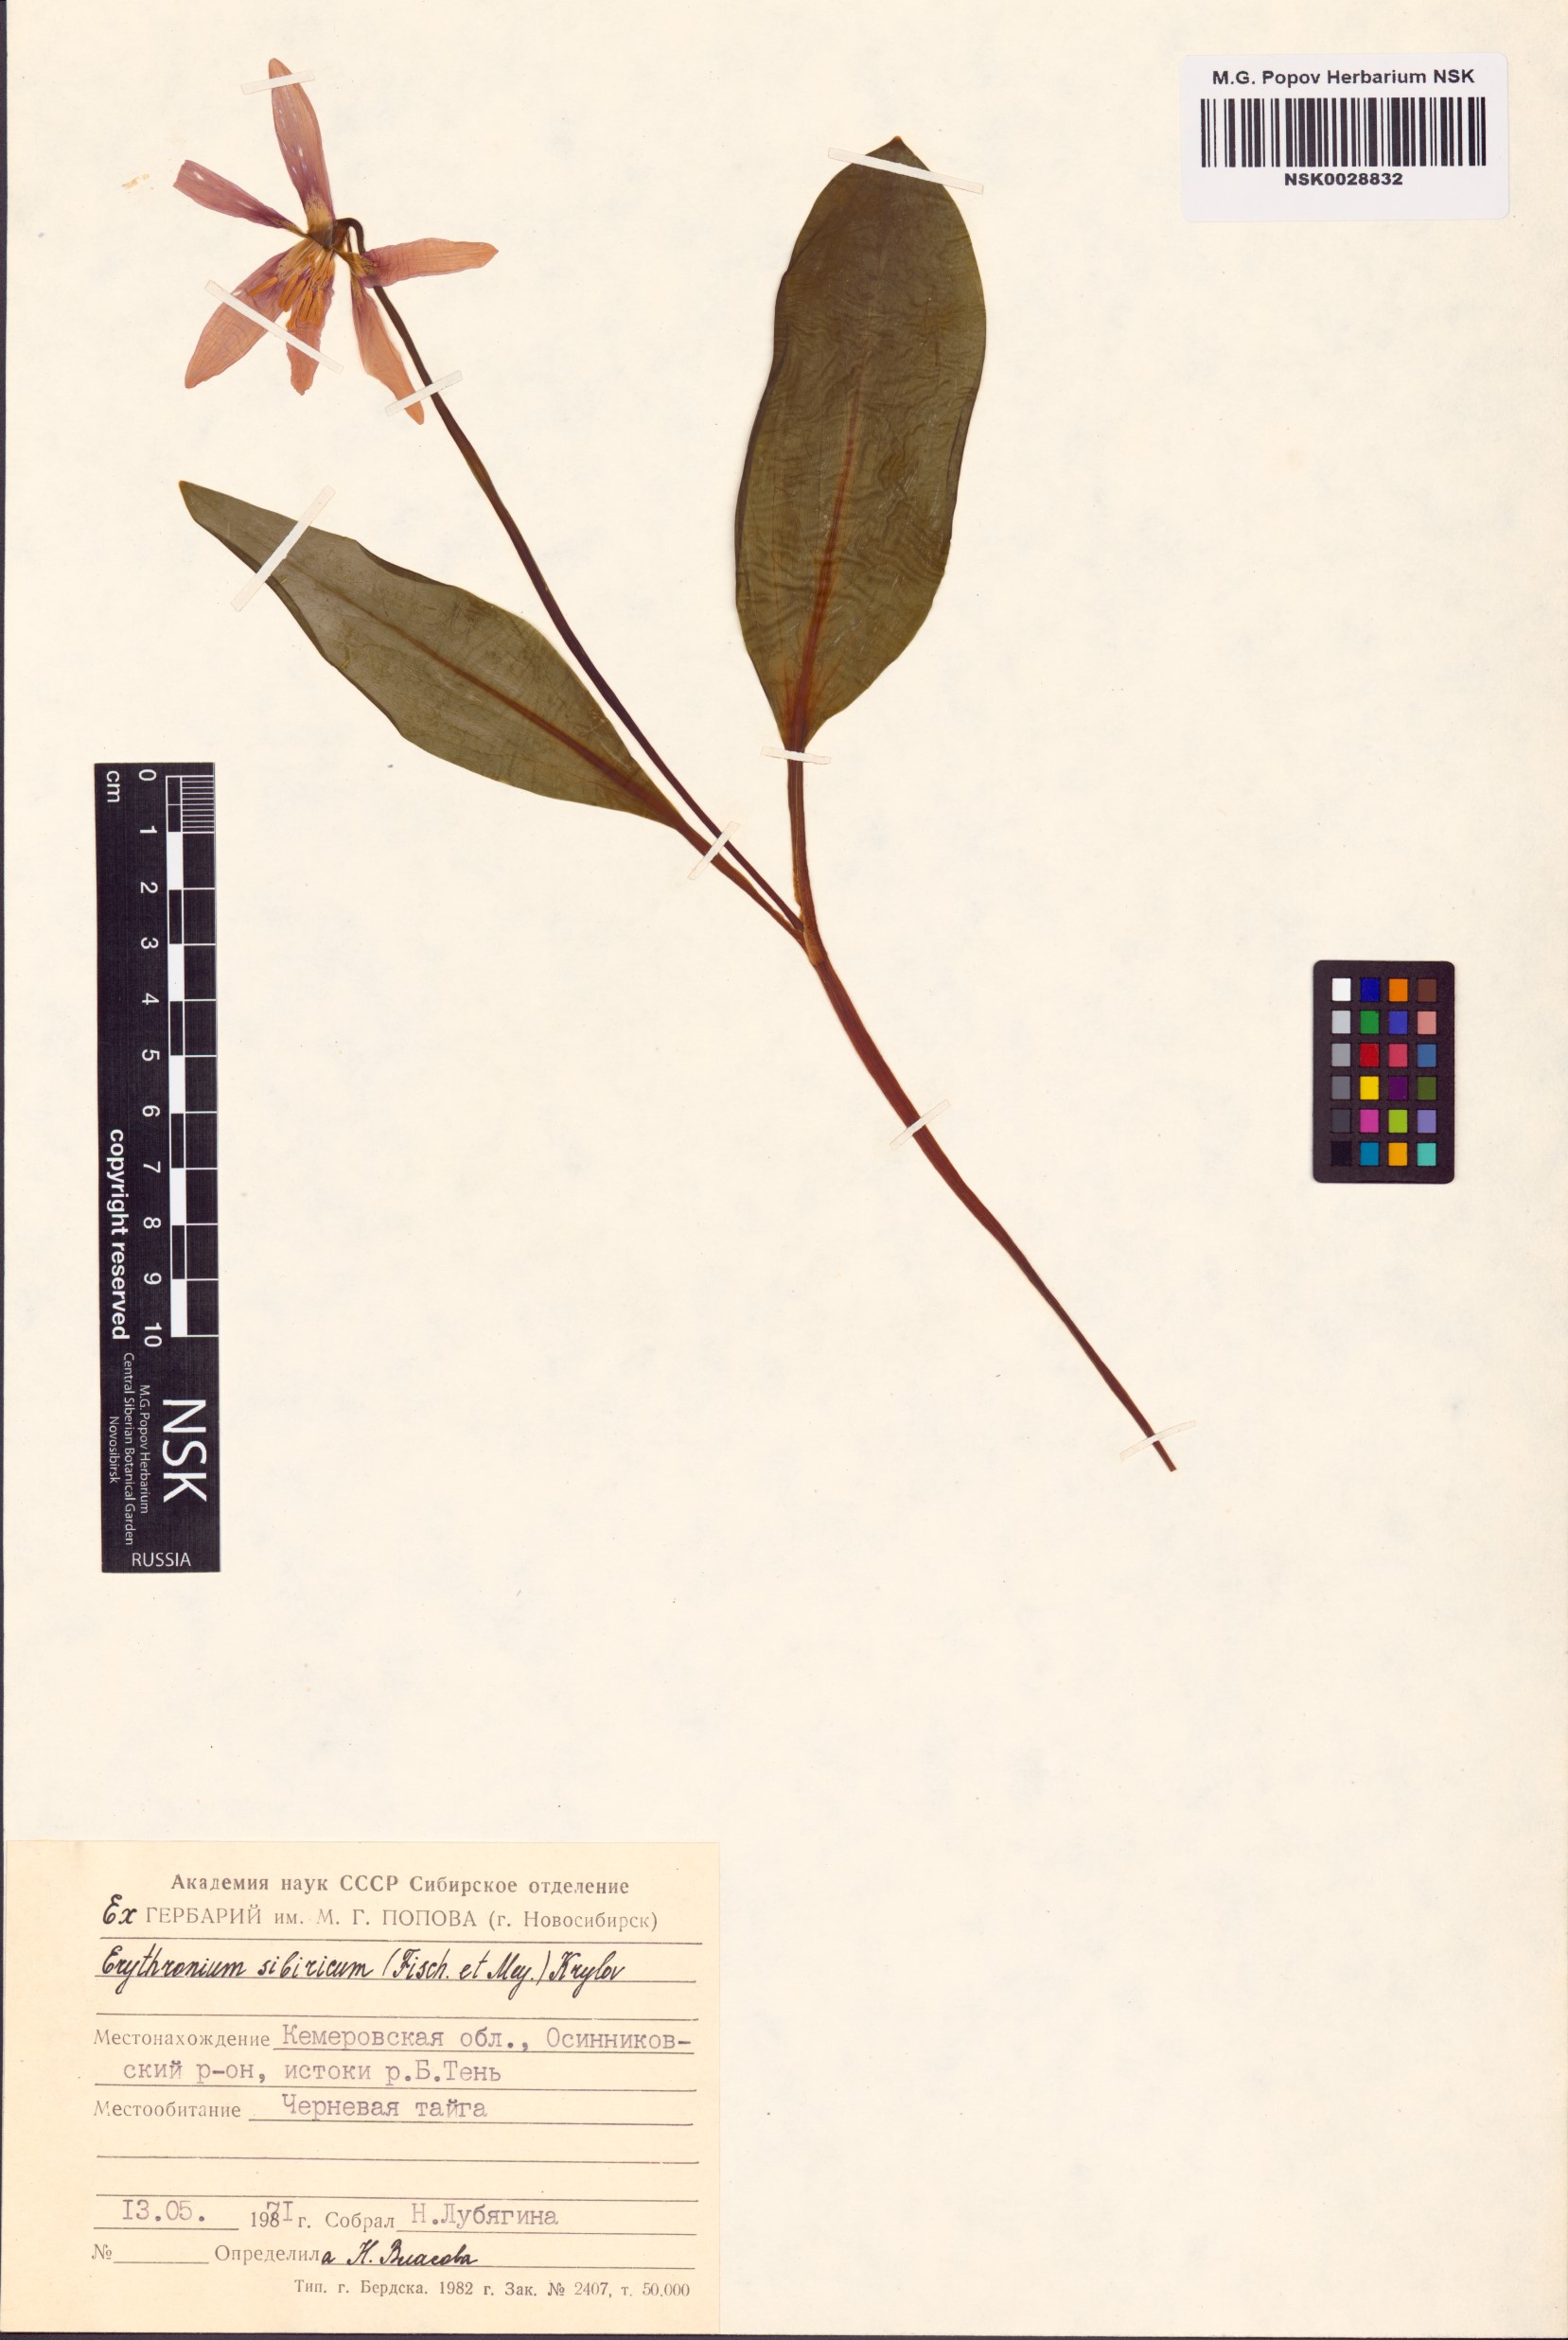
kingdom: Plantae
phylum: Tracheophyta
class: Liliopsida
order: Liliales
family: Liliaceae
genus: Erythronium
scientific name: Erythronium sibiricum
